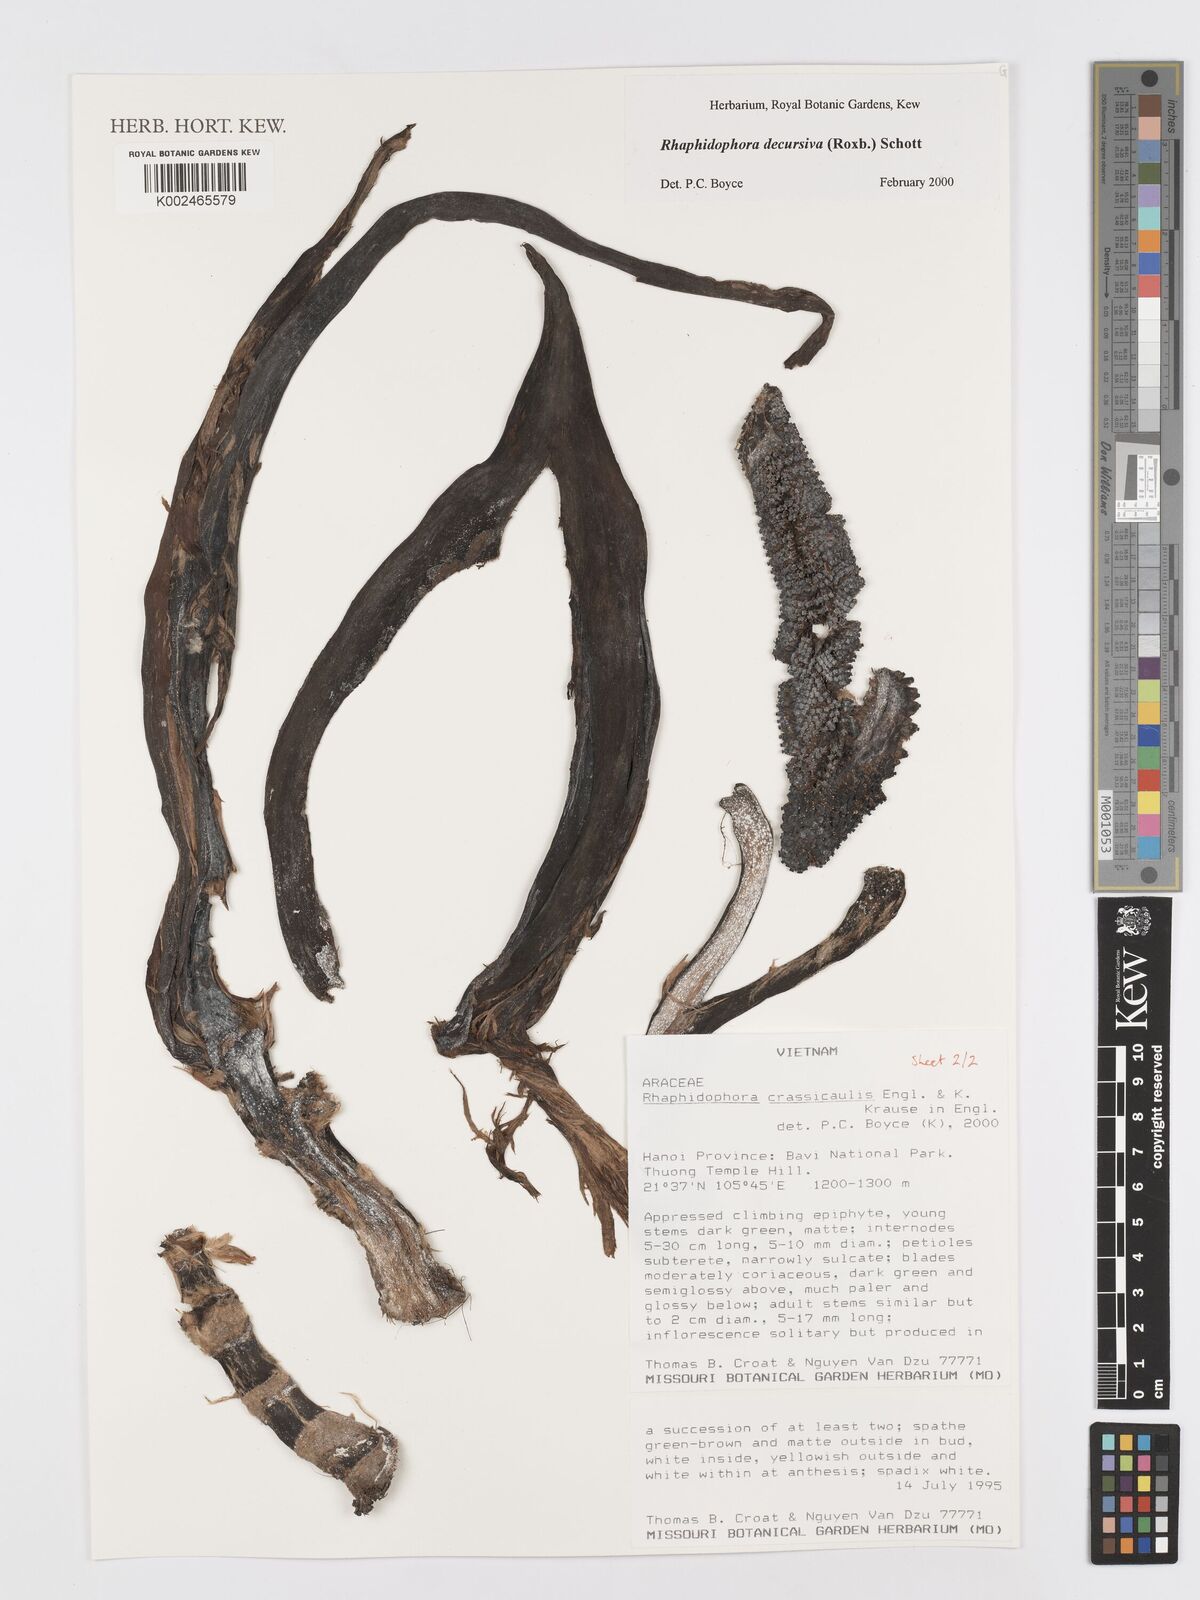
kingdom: Plantae
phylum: Tracheophyta
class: Liliopsida
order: Alismatales
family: Araceae
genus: Rhaphidophora
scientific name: Rhaphidophora decursiva
